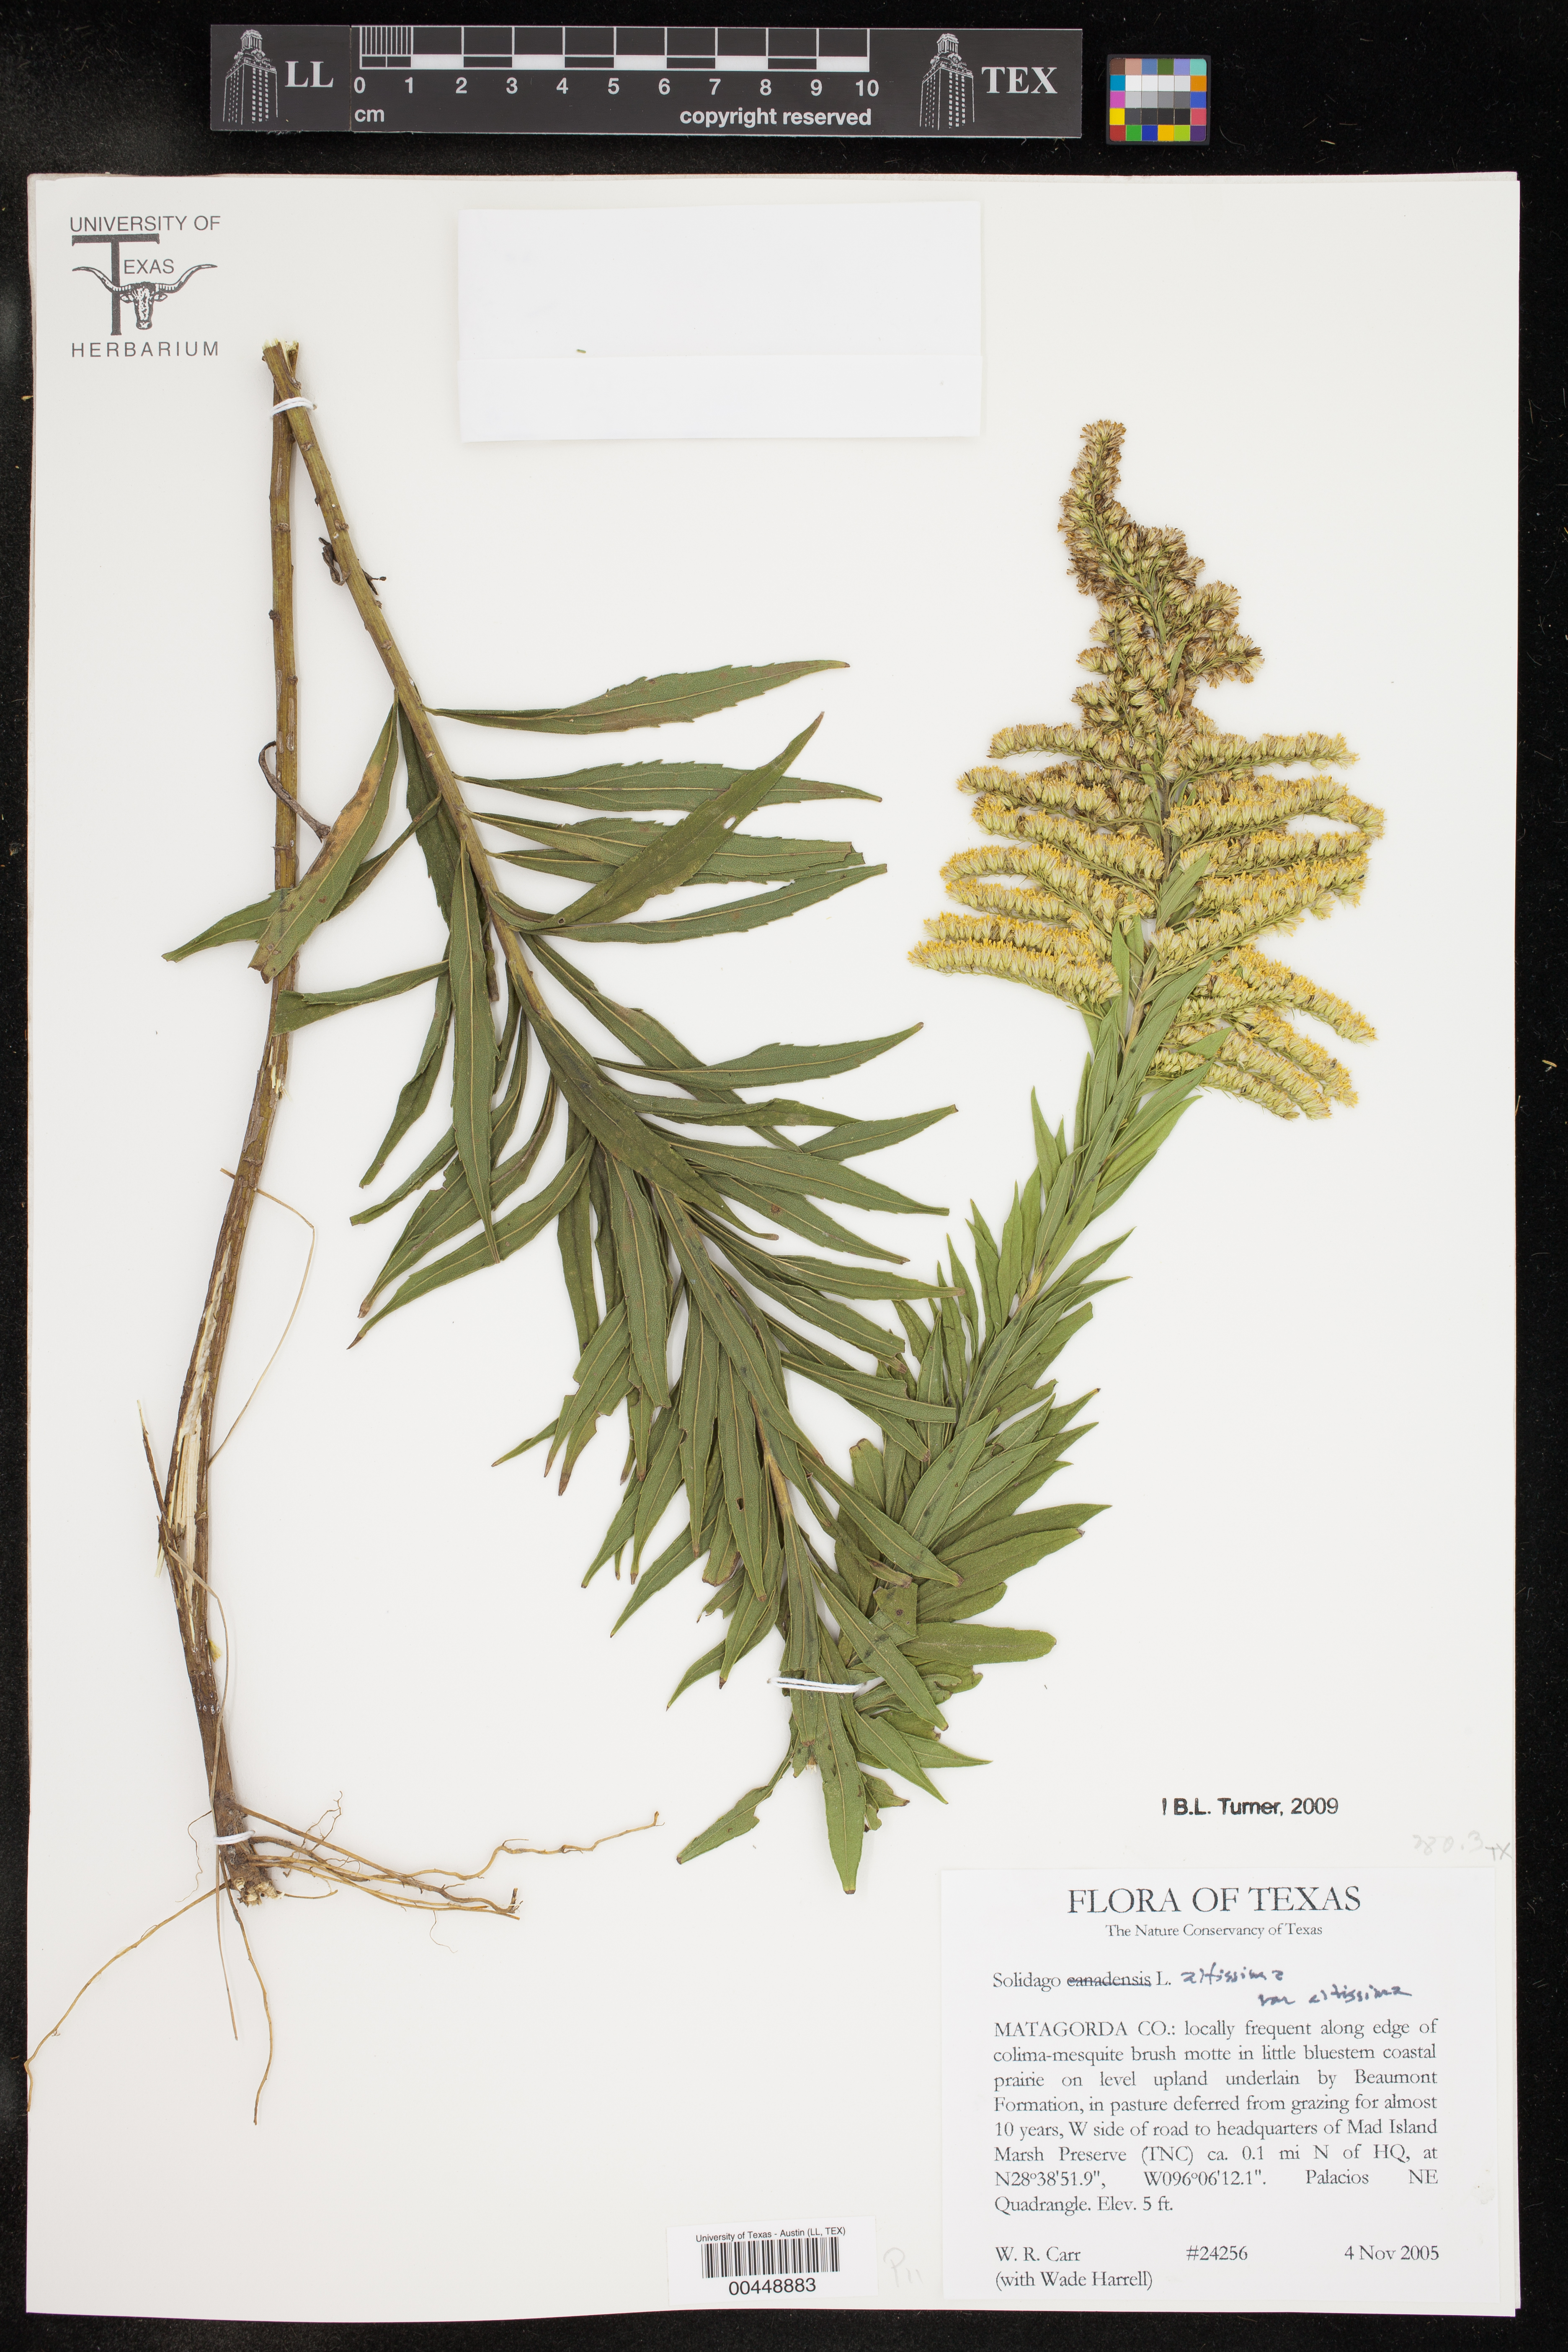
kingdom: Plantae
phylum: Tracheophyta
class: Magnoliopsida
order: Asterales
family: Asteraceae
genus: Solidago
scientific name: Solidago altissima
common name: Late goldenrod
